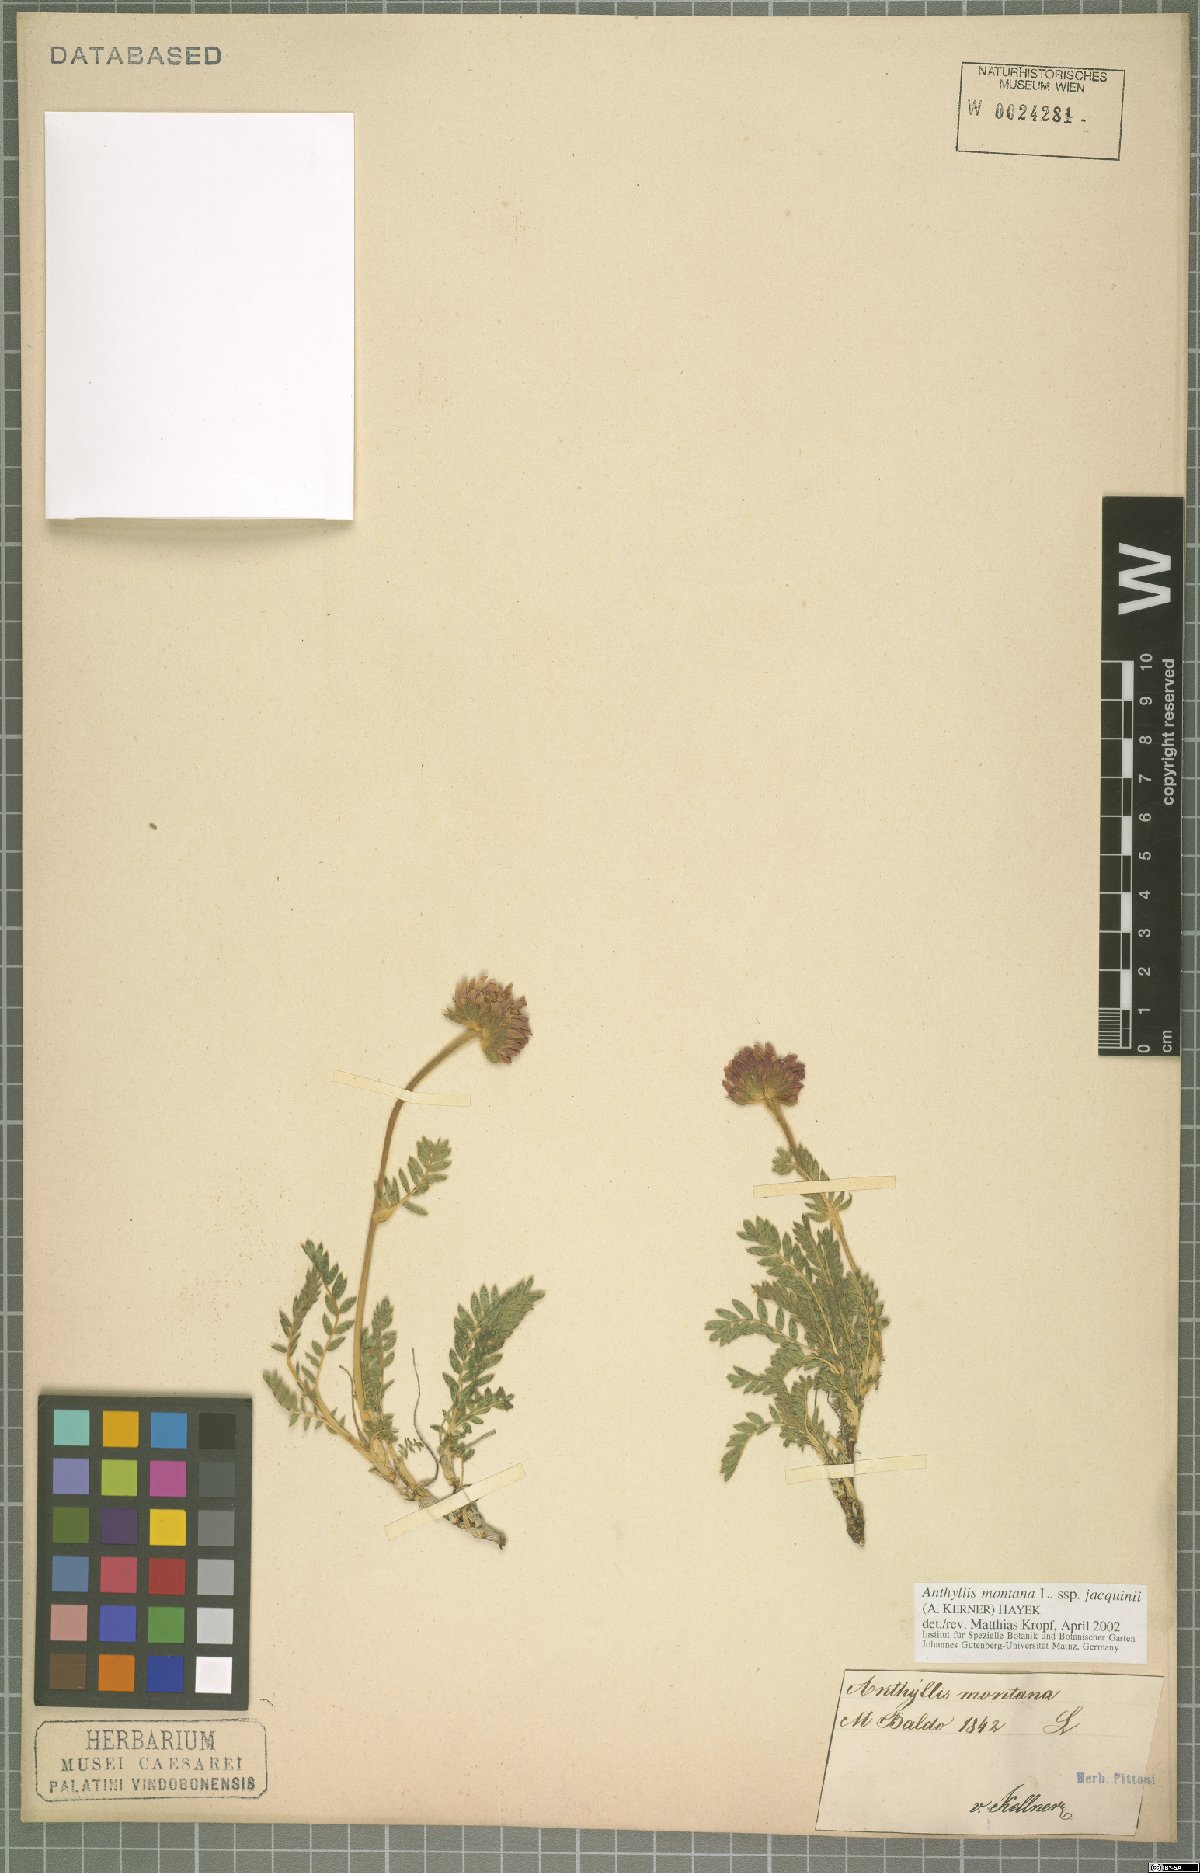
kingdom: Plantae
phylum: Tracheophyta
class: Magnoliopsida
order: Fabales
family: Fabaceae
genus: Anthyllis
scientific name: Anthyllis montana
